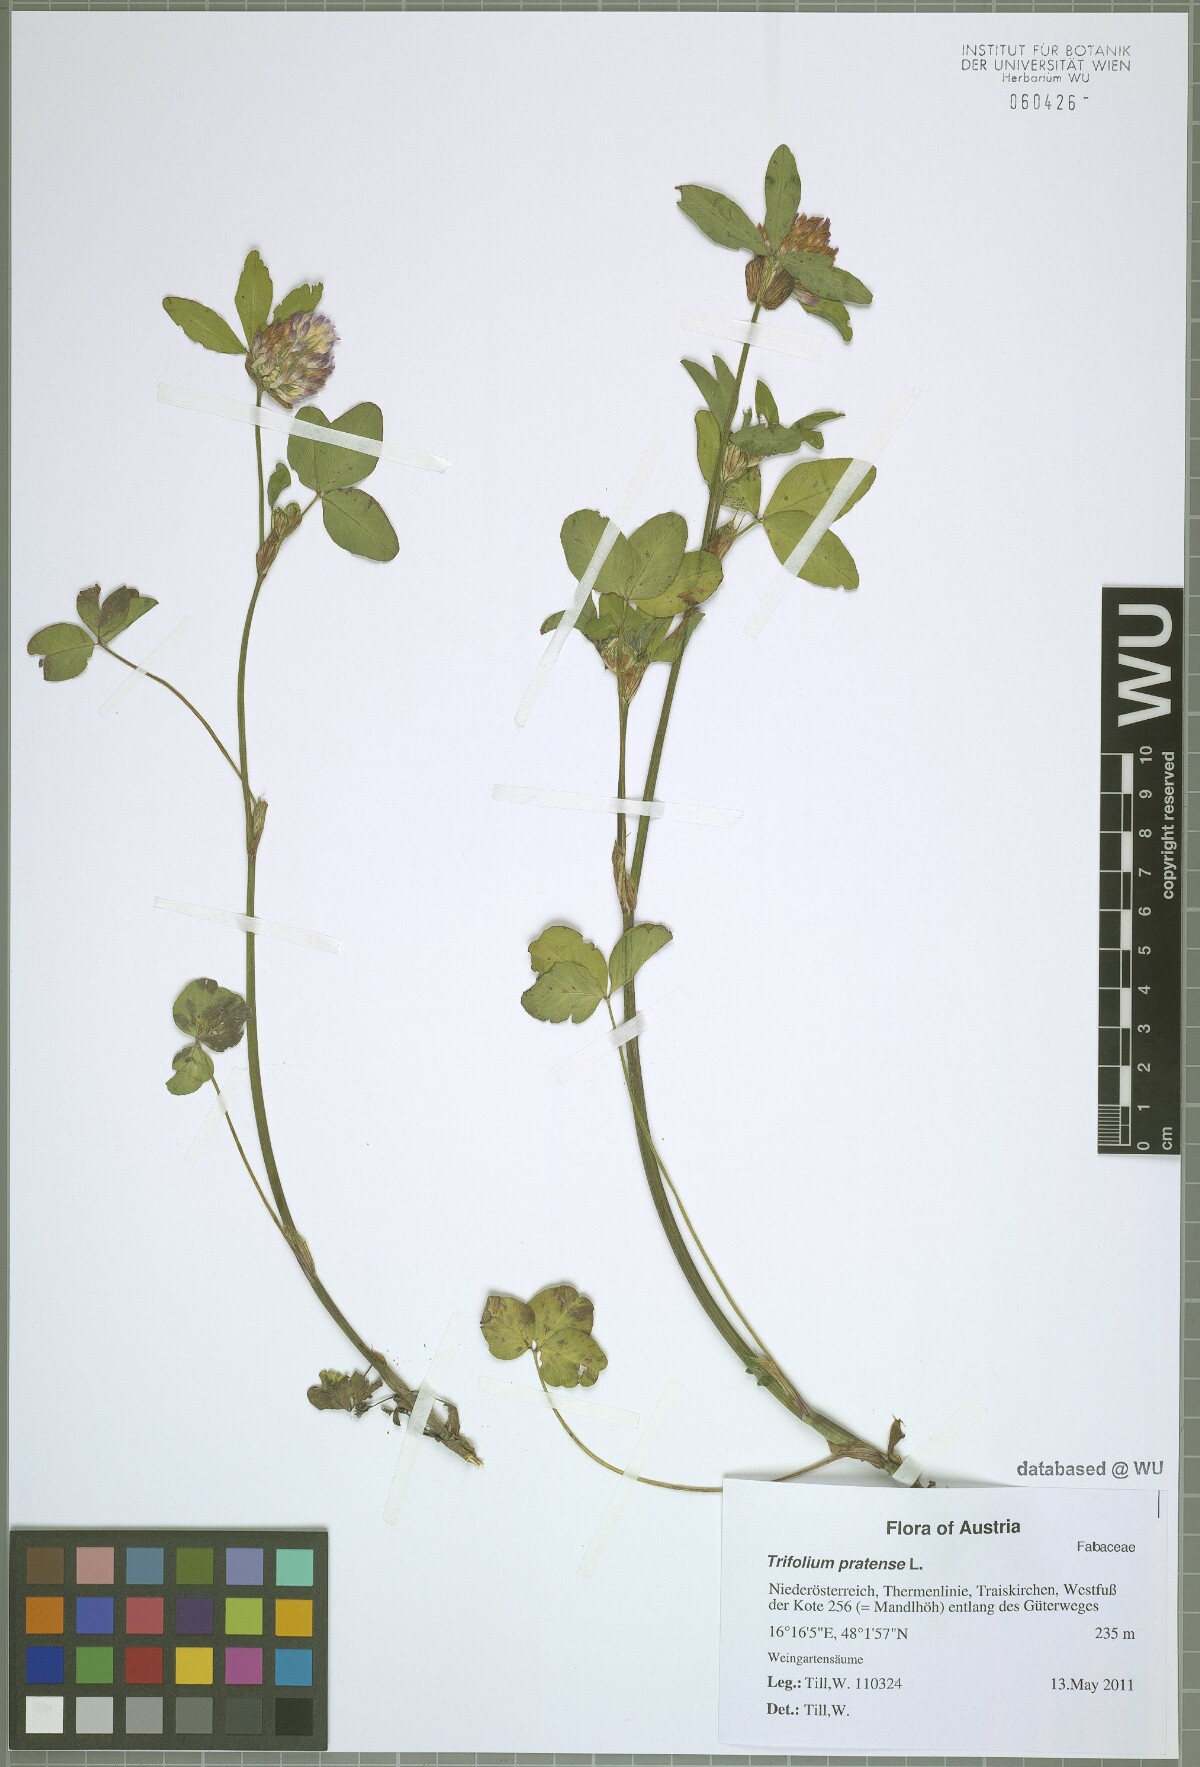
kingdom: Plantae
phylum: Tracheophyta
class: Magnoliopsida
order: Fabales
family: Fabaceae
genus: Trifolium
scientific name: Trifolium pratense
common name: Red clover
